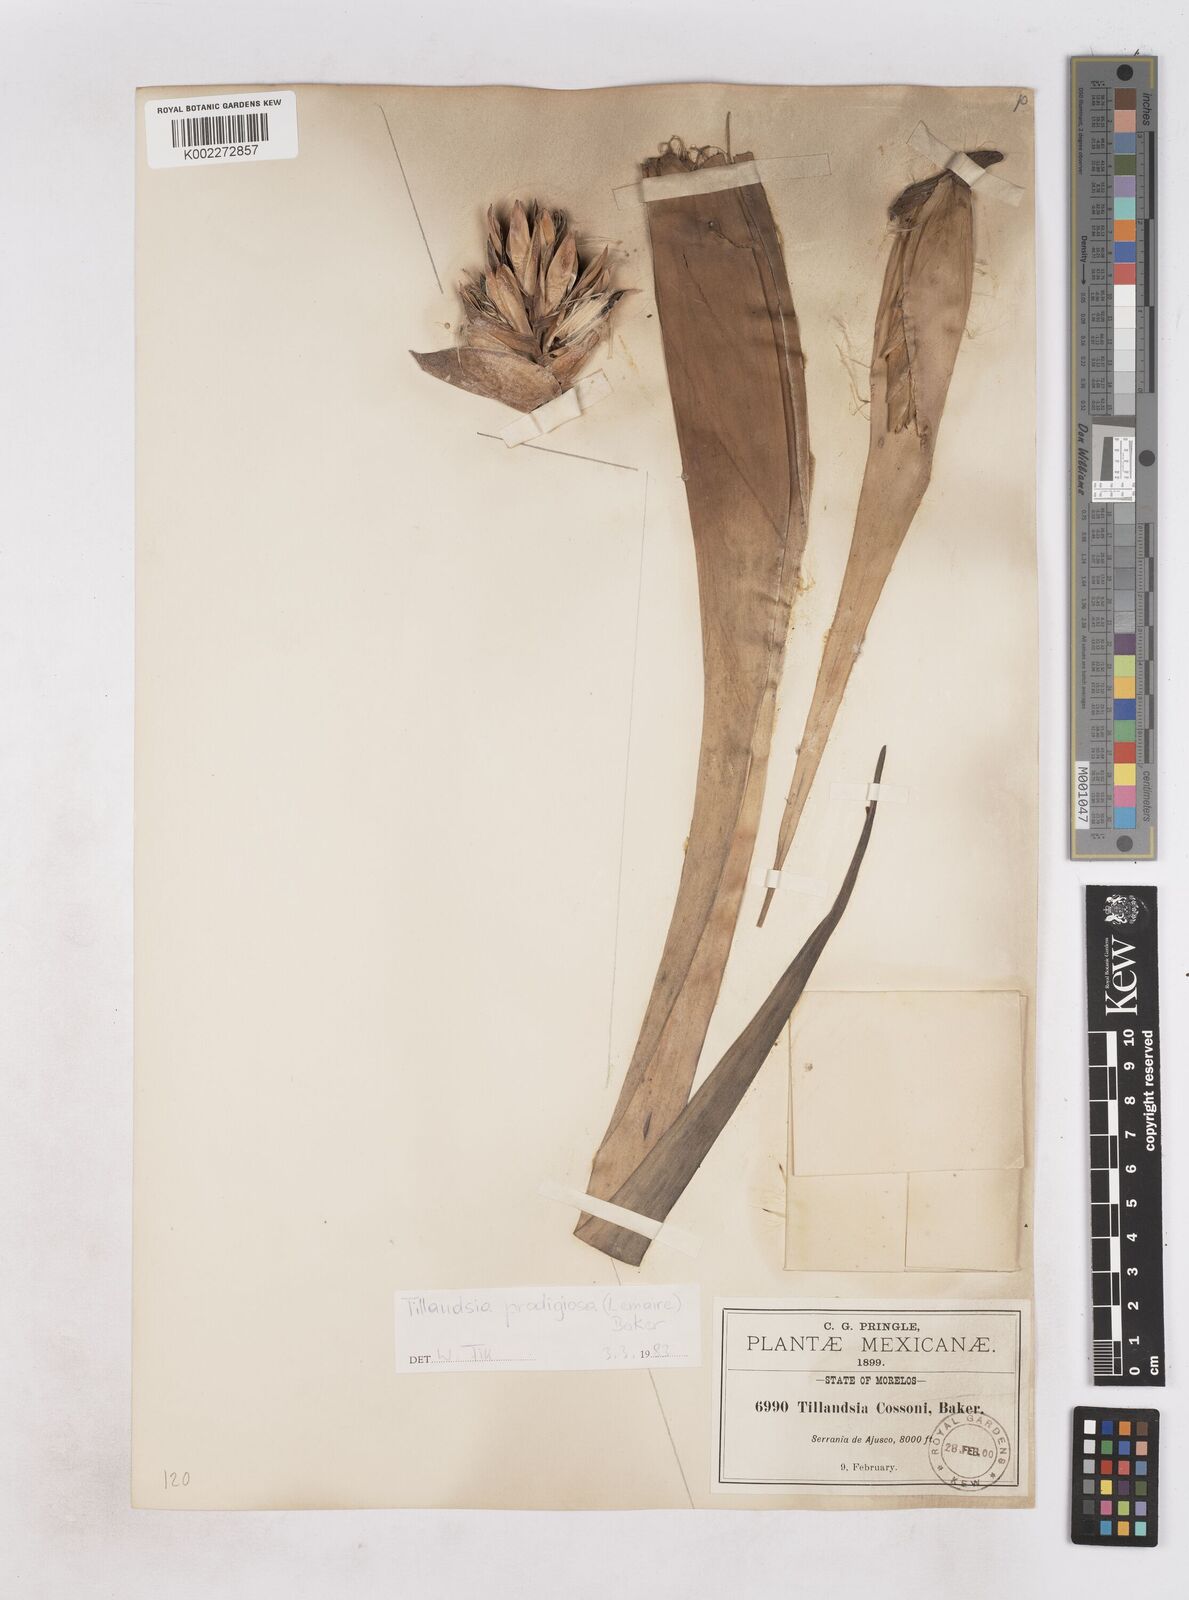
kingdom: Plantae
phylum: Tracheophyta
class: Liliopsida
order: Poales
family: Bromeliaceae
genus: Tillandsia
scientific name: Tillandsia prodigiosa
